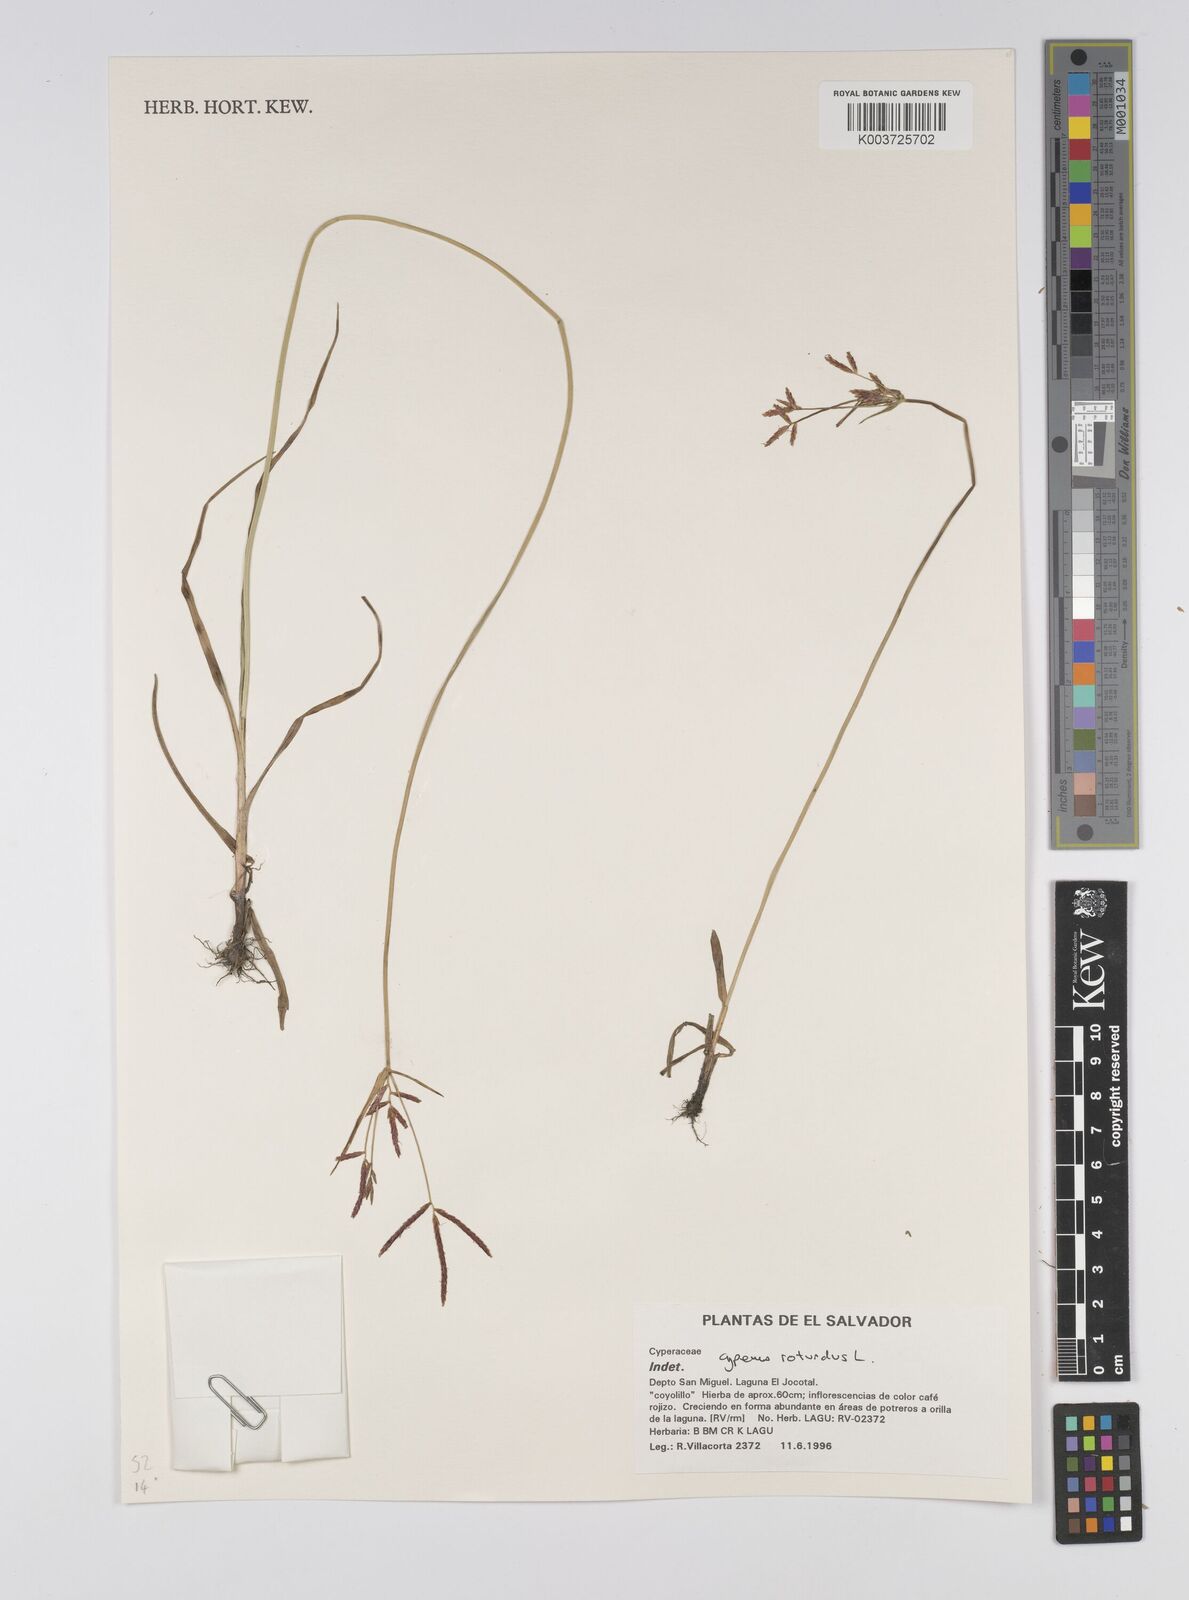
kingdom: Plantae
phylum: Tracheophyta
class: Liliopsida
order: Poales
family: Cyperaceae
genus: Cyperus
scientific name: Cyperus rotundus
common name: Nutgrass
